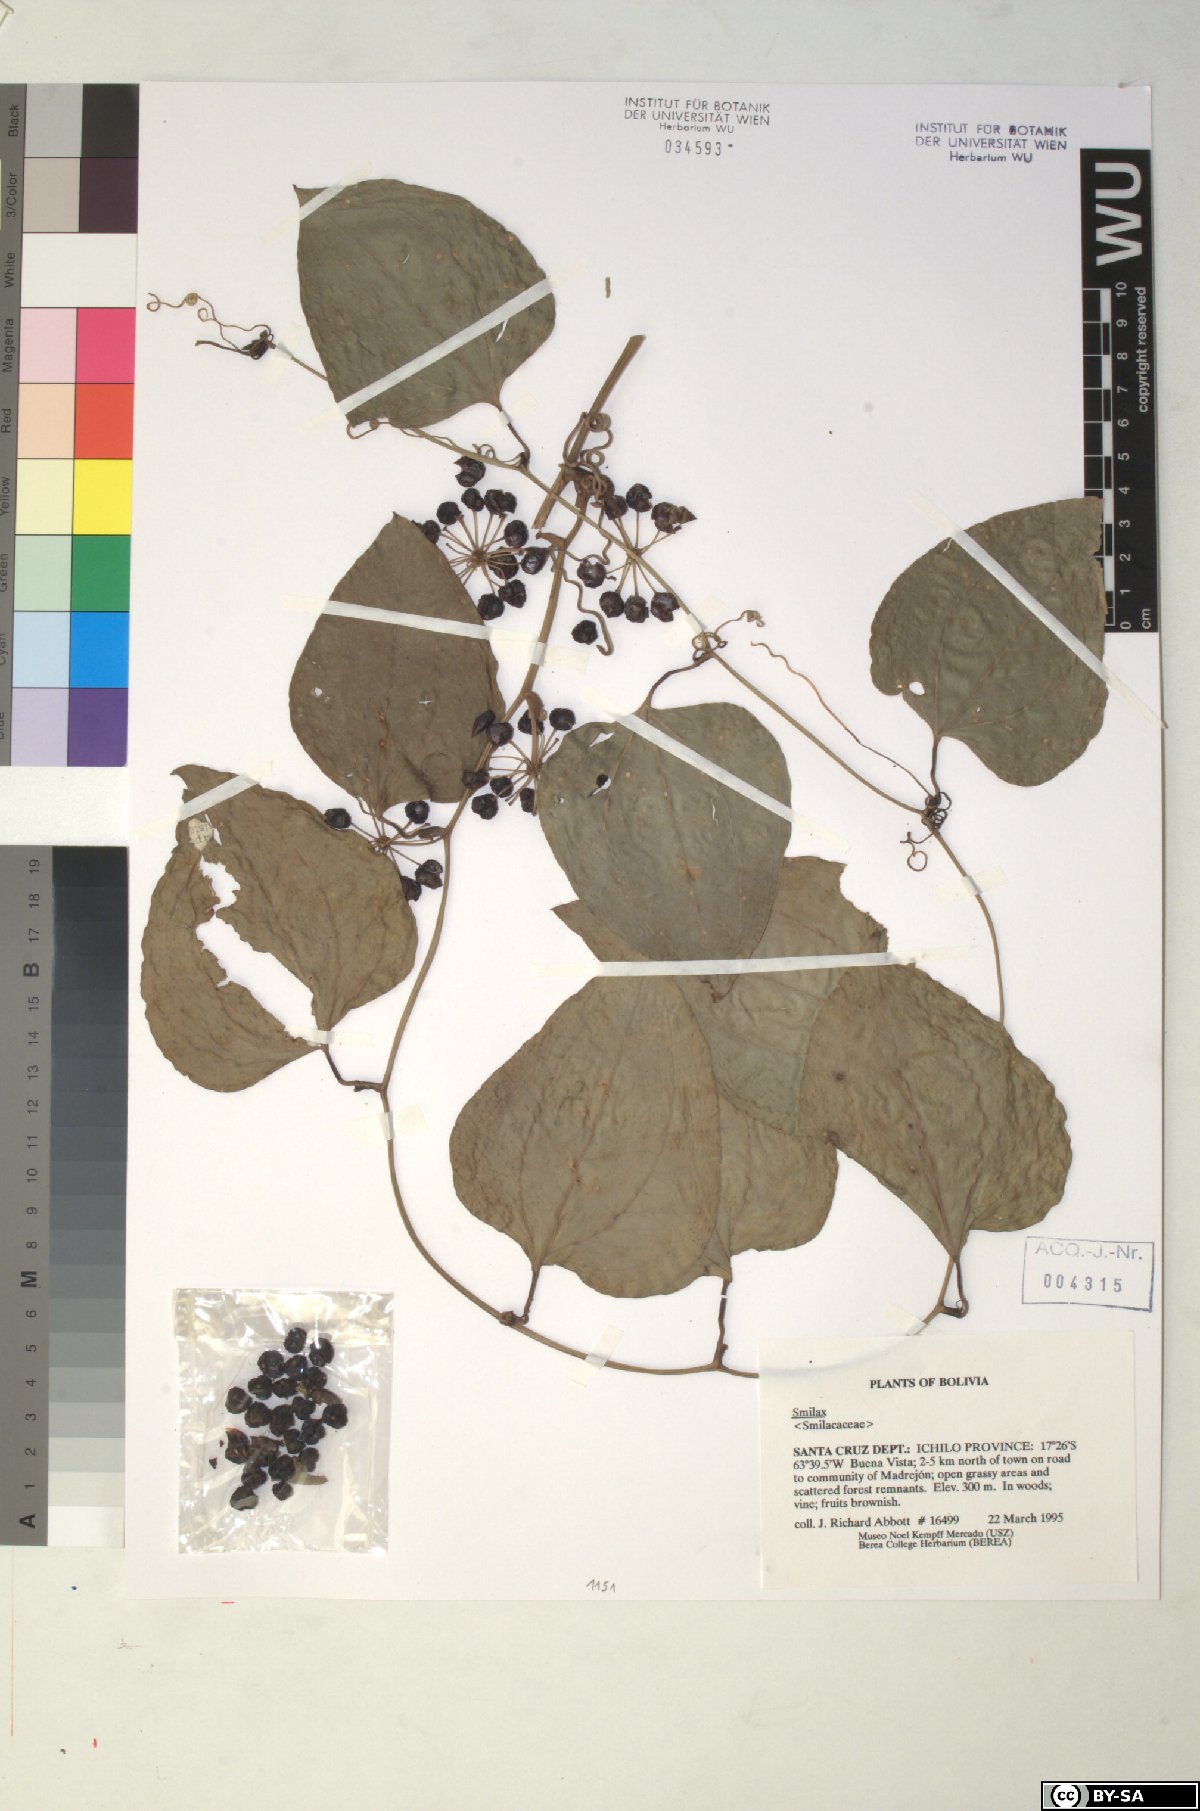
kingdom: Plantae
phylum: Tracheophyta
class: Liliopsida
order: Liliales
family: Smilacaceae
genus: Smilax
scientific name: Smilax
